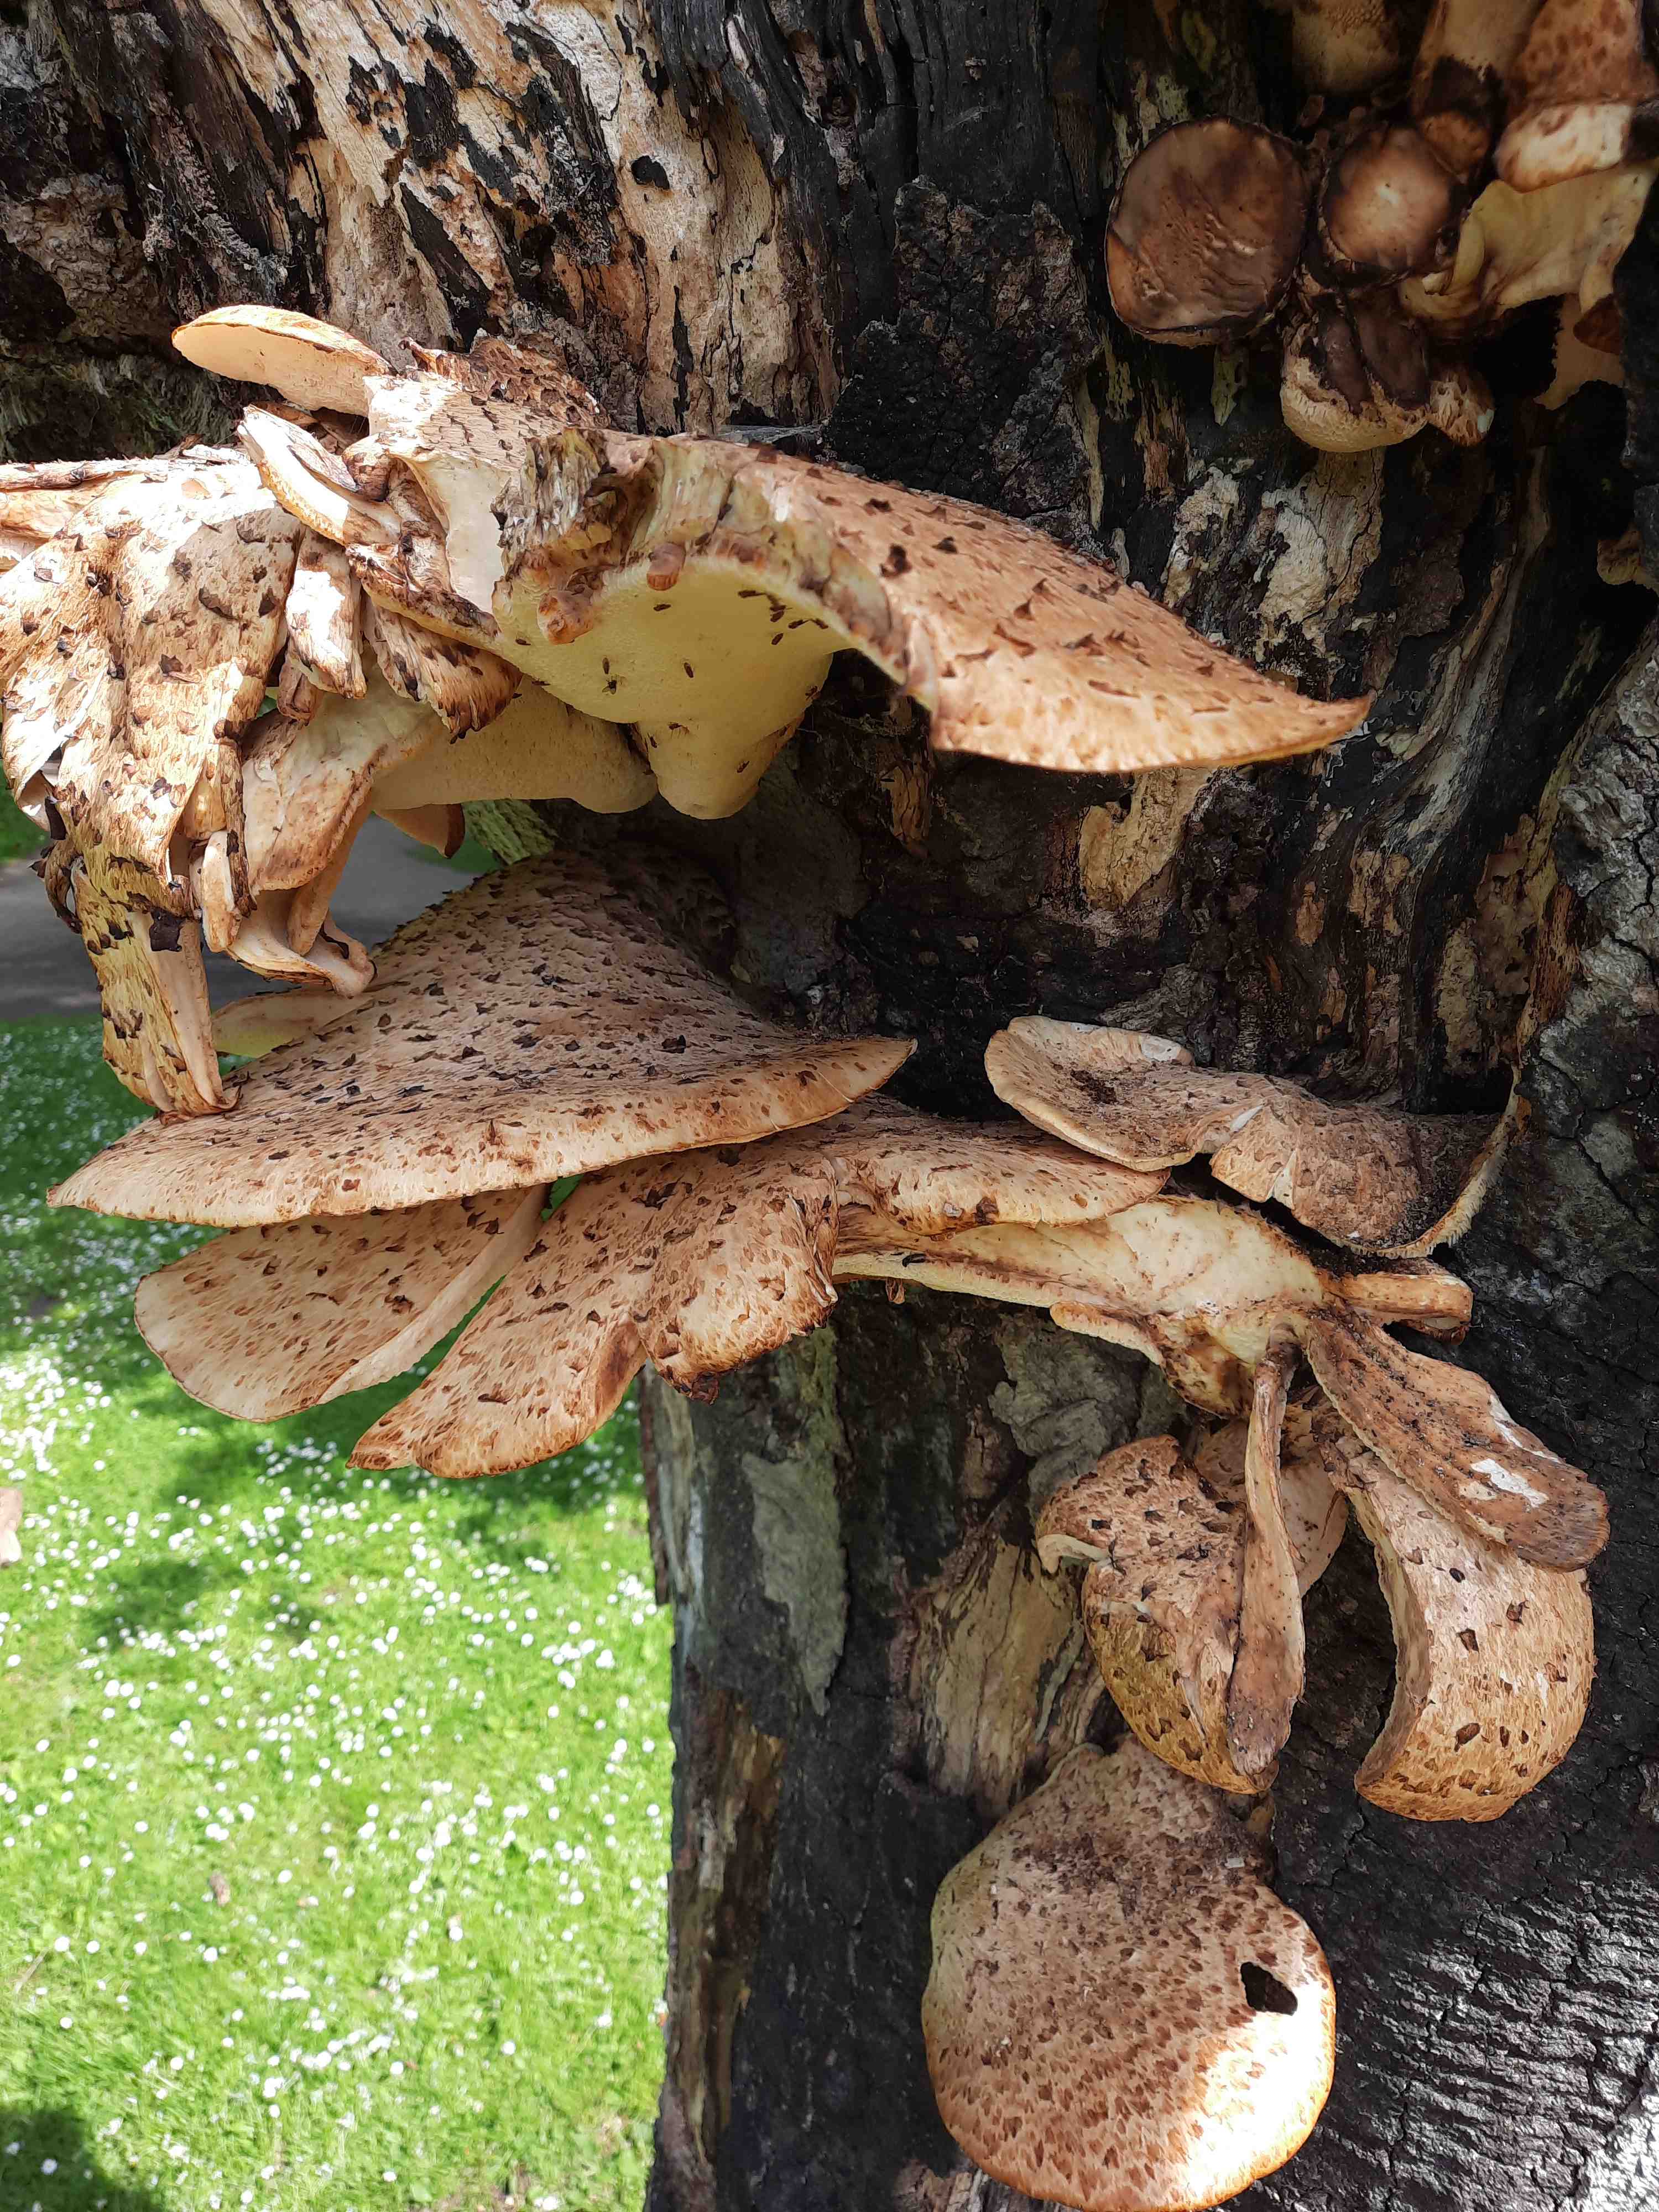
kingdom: Fungi
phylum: Basidiomycota
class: Agaricomycetes
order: Polyporales
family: Polyporaceae
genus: Cerioporus
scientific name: Cerioporus squamosus
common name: skællet stilkporesvamp
